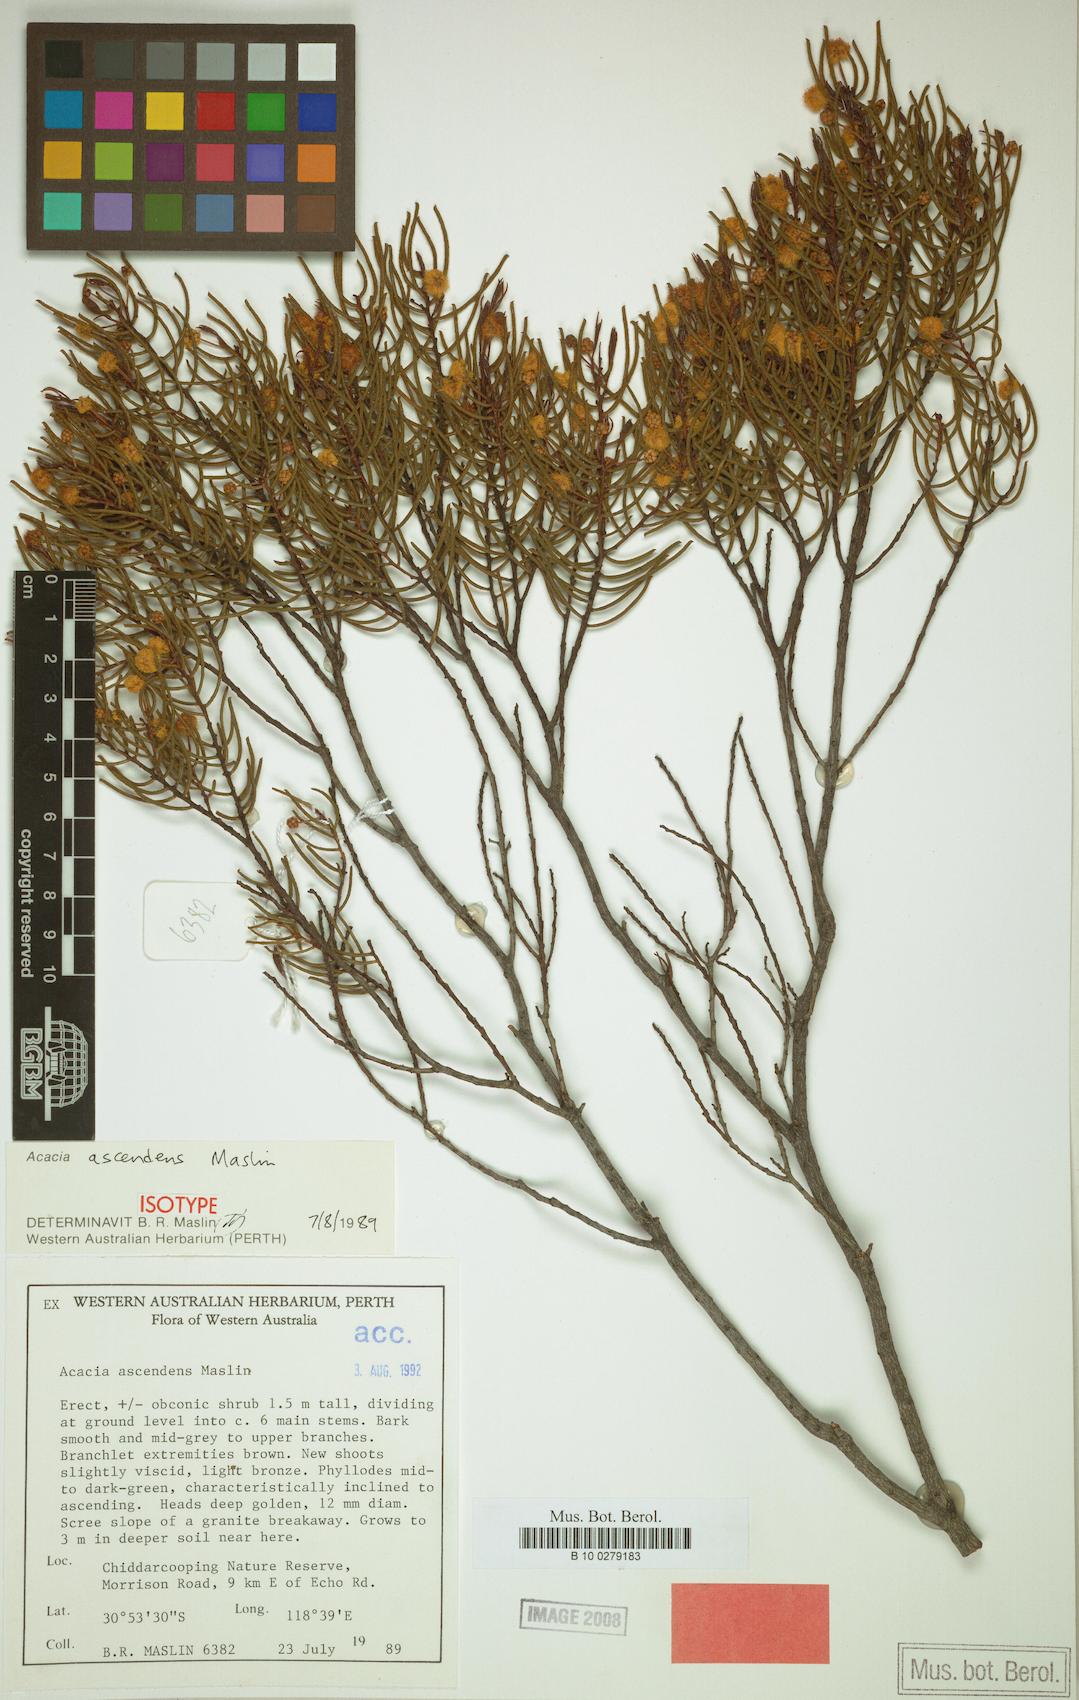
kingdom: Plantae
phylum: Tracheophyta
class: Magnoliopsida
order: Fabales
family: Fabaceae
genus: Acacia
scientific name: Acacia ascendens
